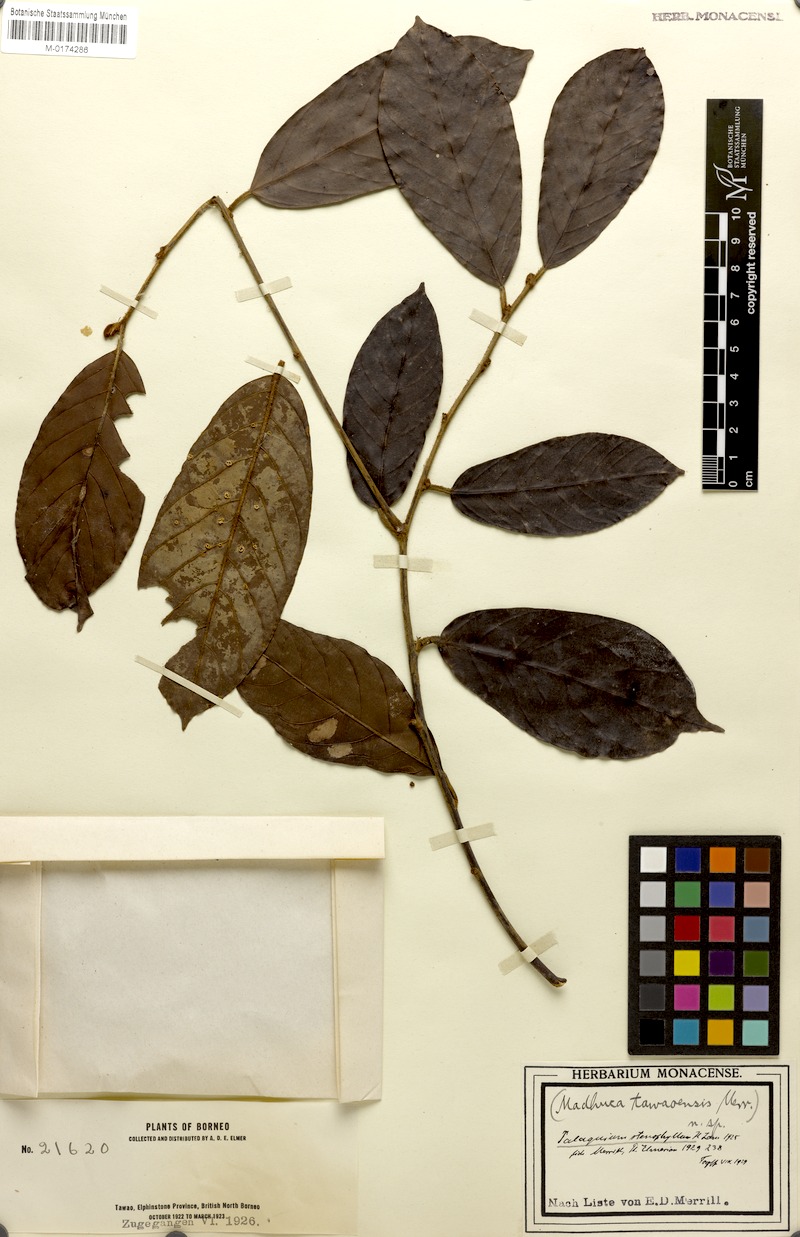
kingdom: Plantae
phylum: Tracheophyta
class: Magnoliopsida
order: Ericales
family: Sapotaceae
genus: Madhuca
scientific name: Madhuca
